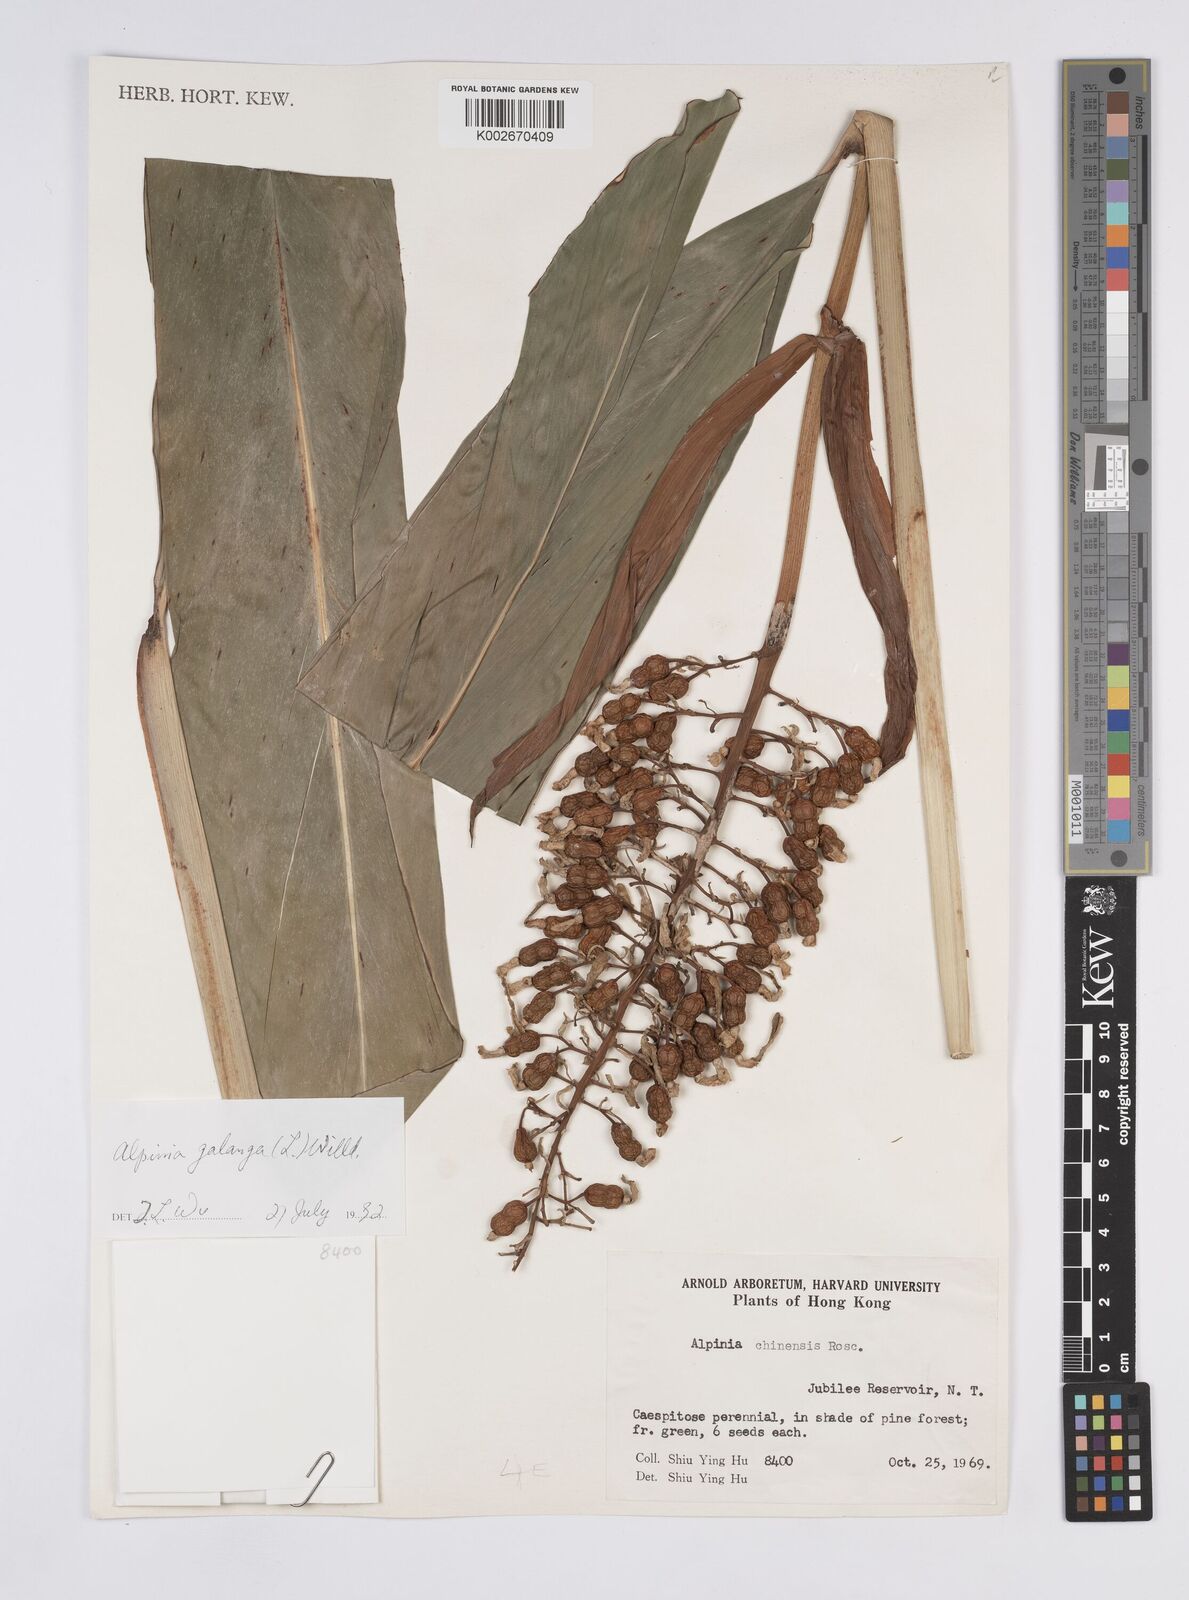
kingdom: Plantae
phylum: Tracheophyta
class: Liliopsida
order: Zingiberales
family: Zingiberaceae
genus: Alpinia
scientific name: Alpinia galanga
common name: Siamese-ginger
